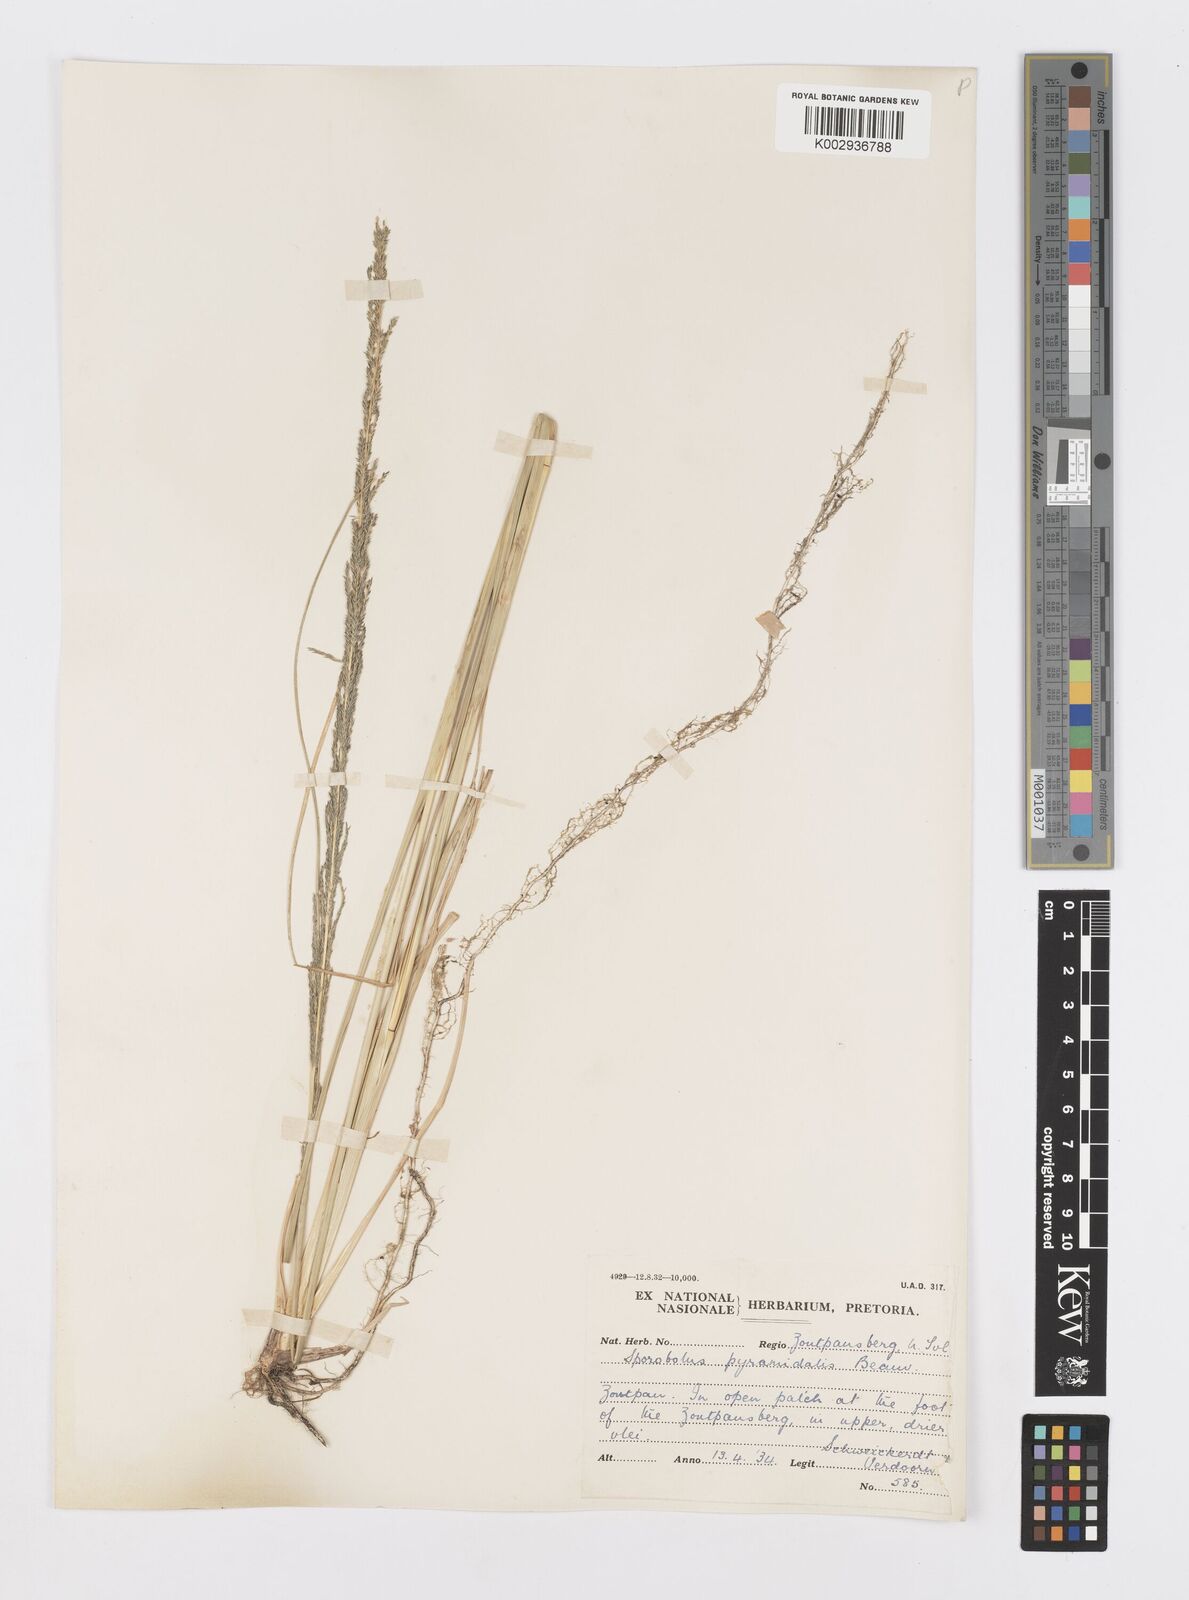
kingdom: Plantae
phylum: Tracheophyta
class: Liliopsida
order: Poales
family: Poaceae
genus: Sporobolus
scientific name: Sporobolus pyramidalis
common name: West indian dropseed
